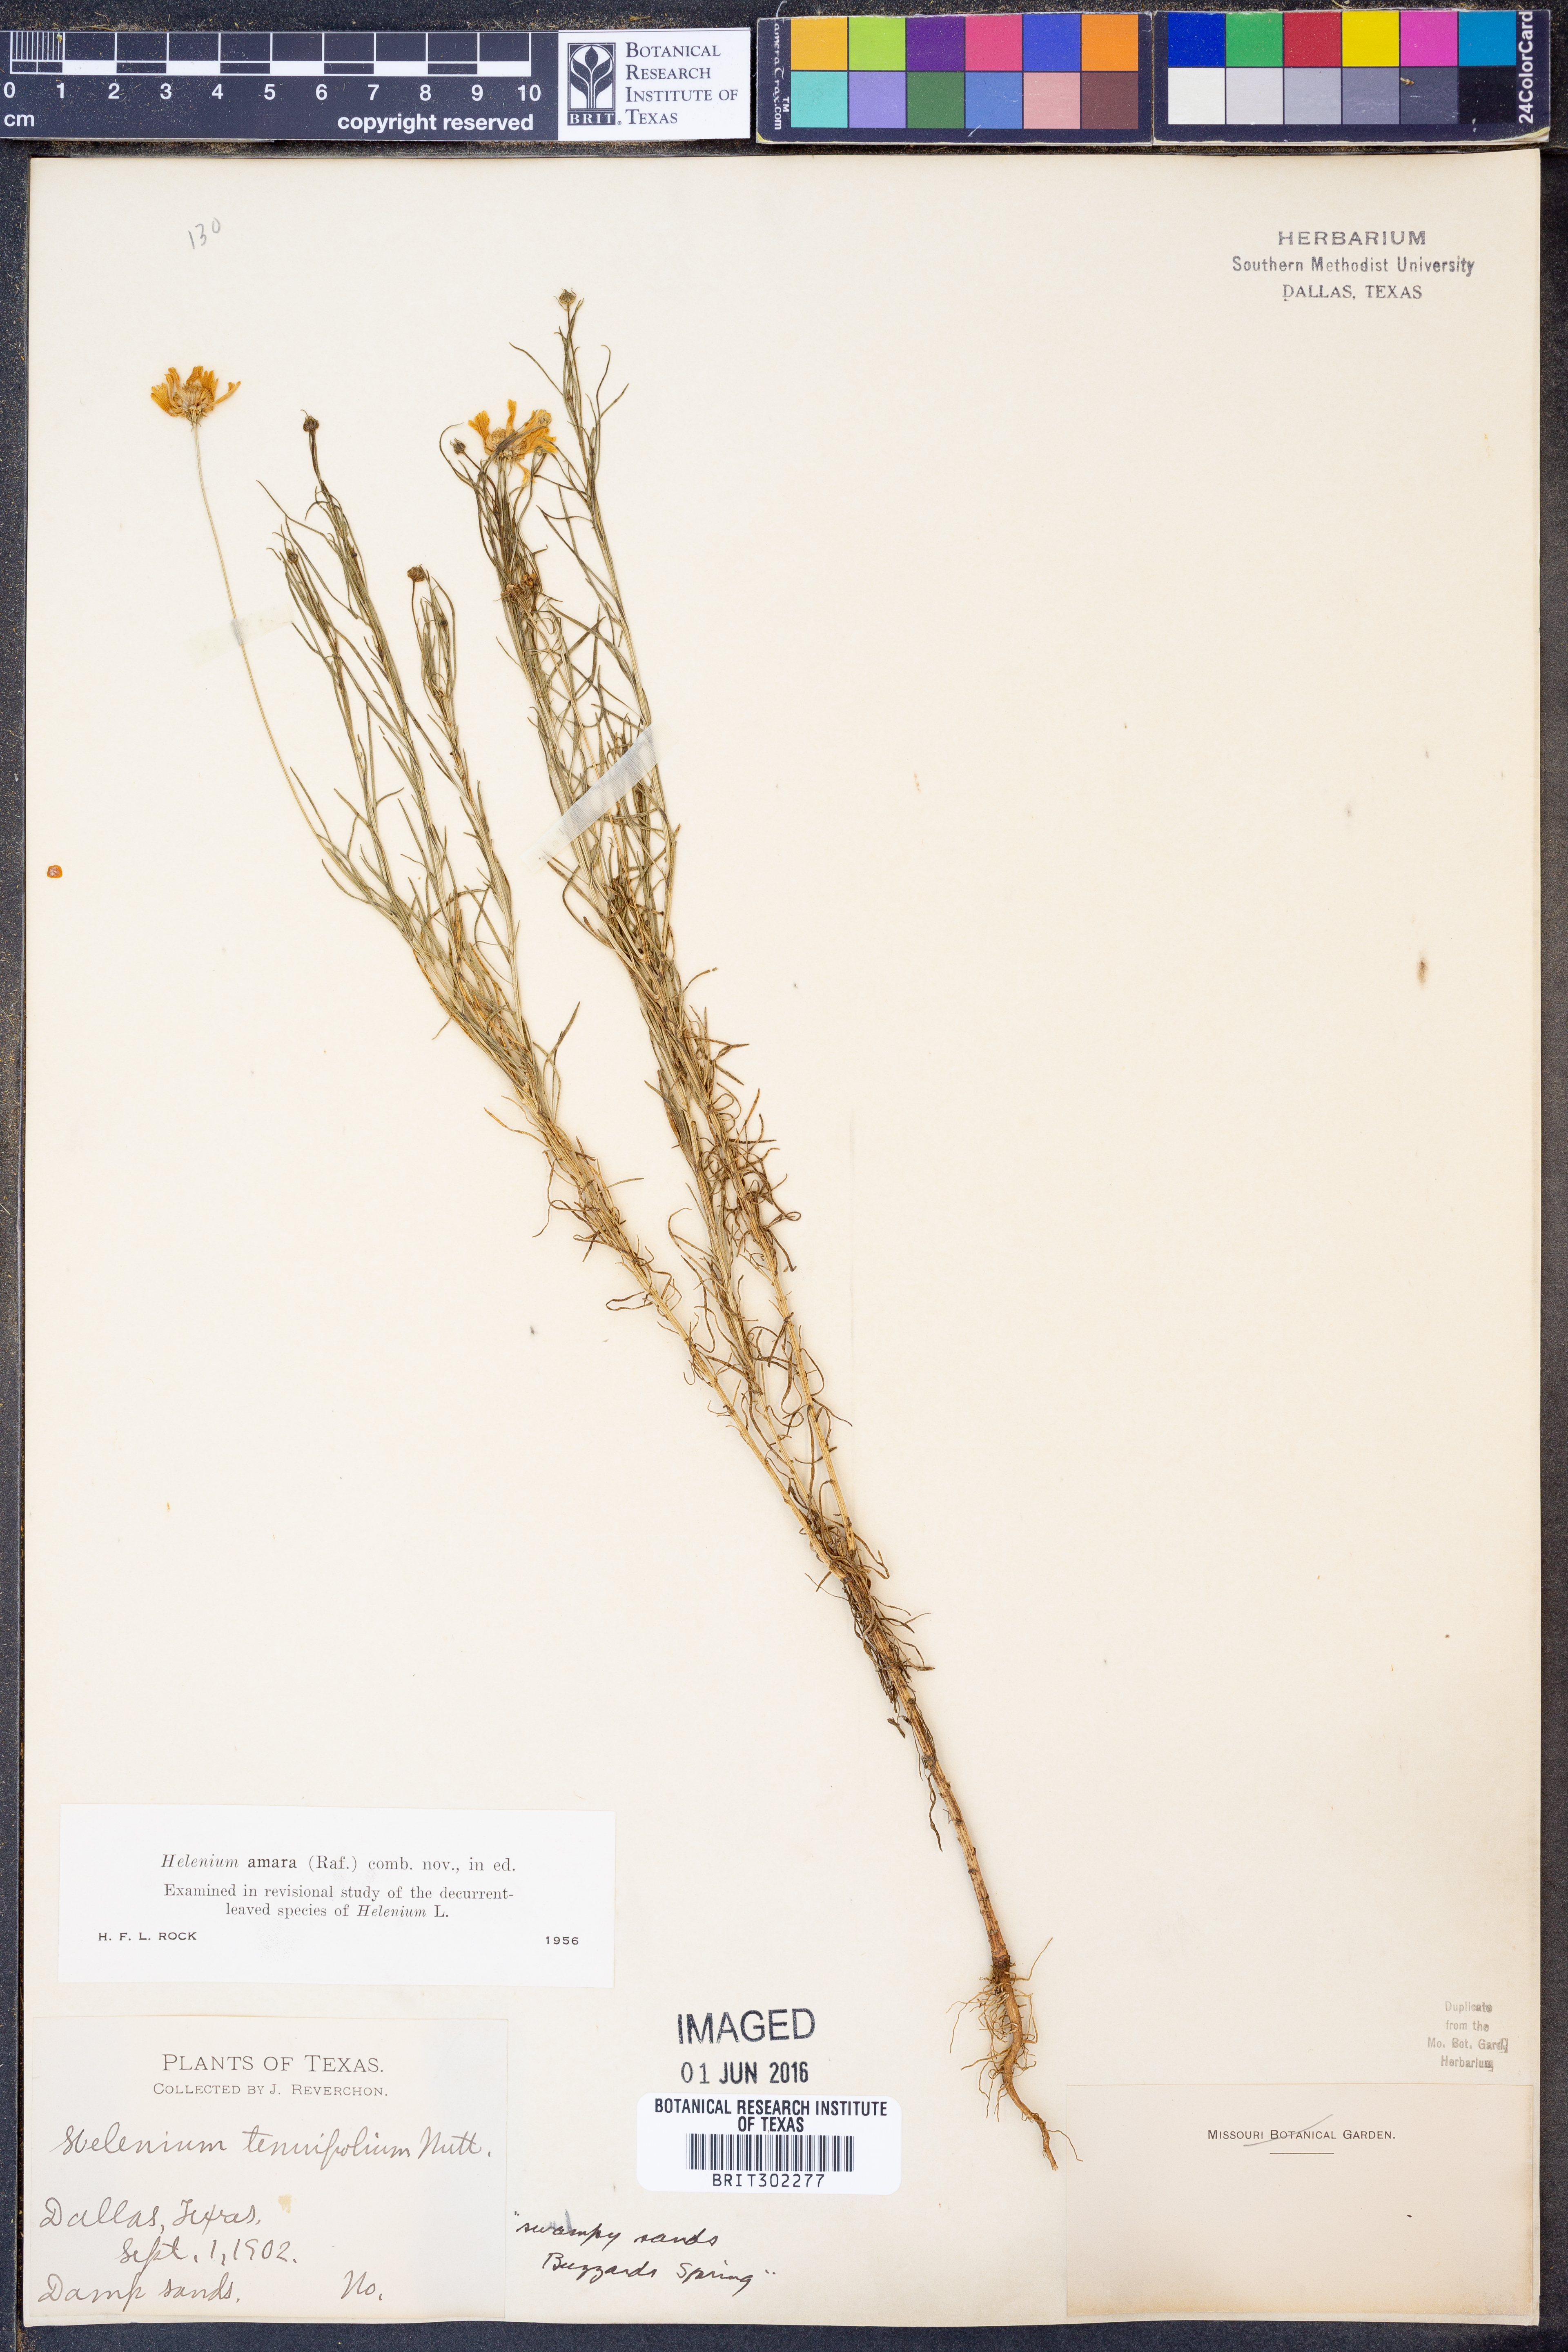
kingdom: Plantae
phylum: Tracheophyta
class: Magnoliopsida
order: Asterales
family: Asteraceae
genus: Helenium
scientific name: Helenium amarum
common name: Bitter sneezeweed
